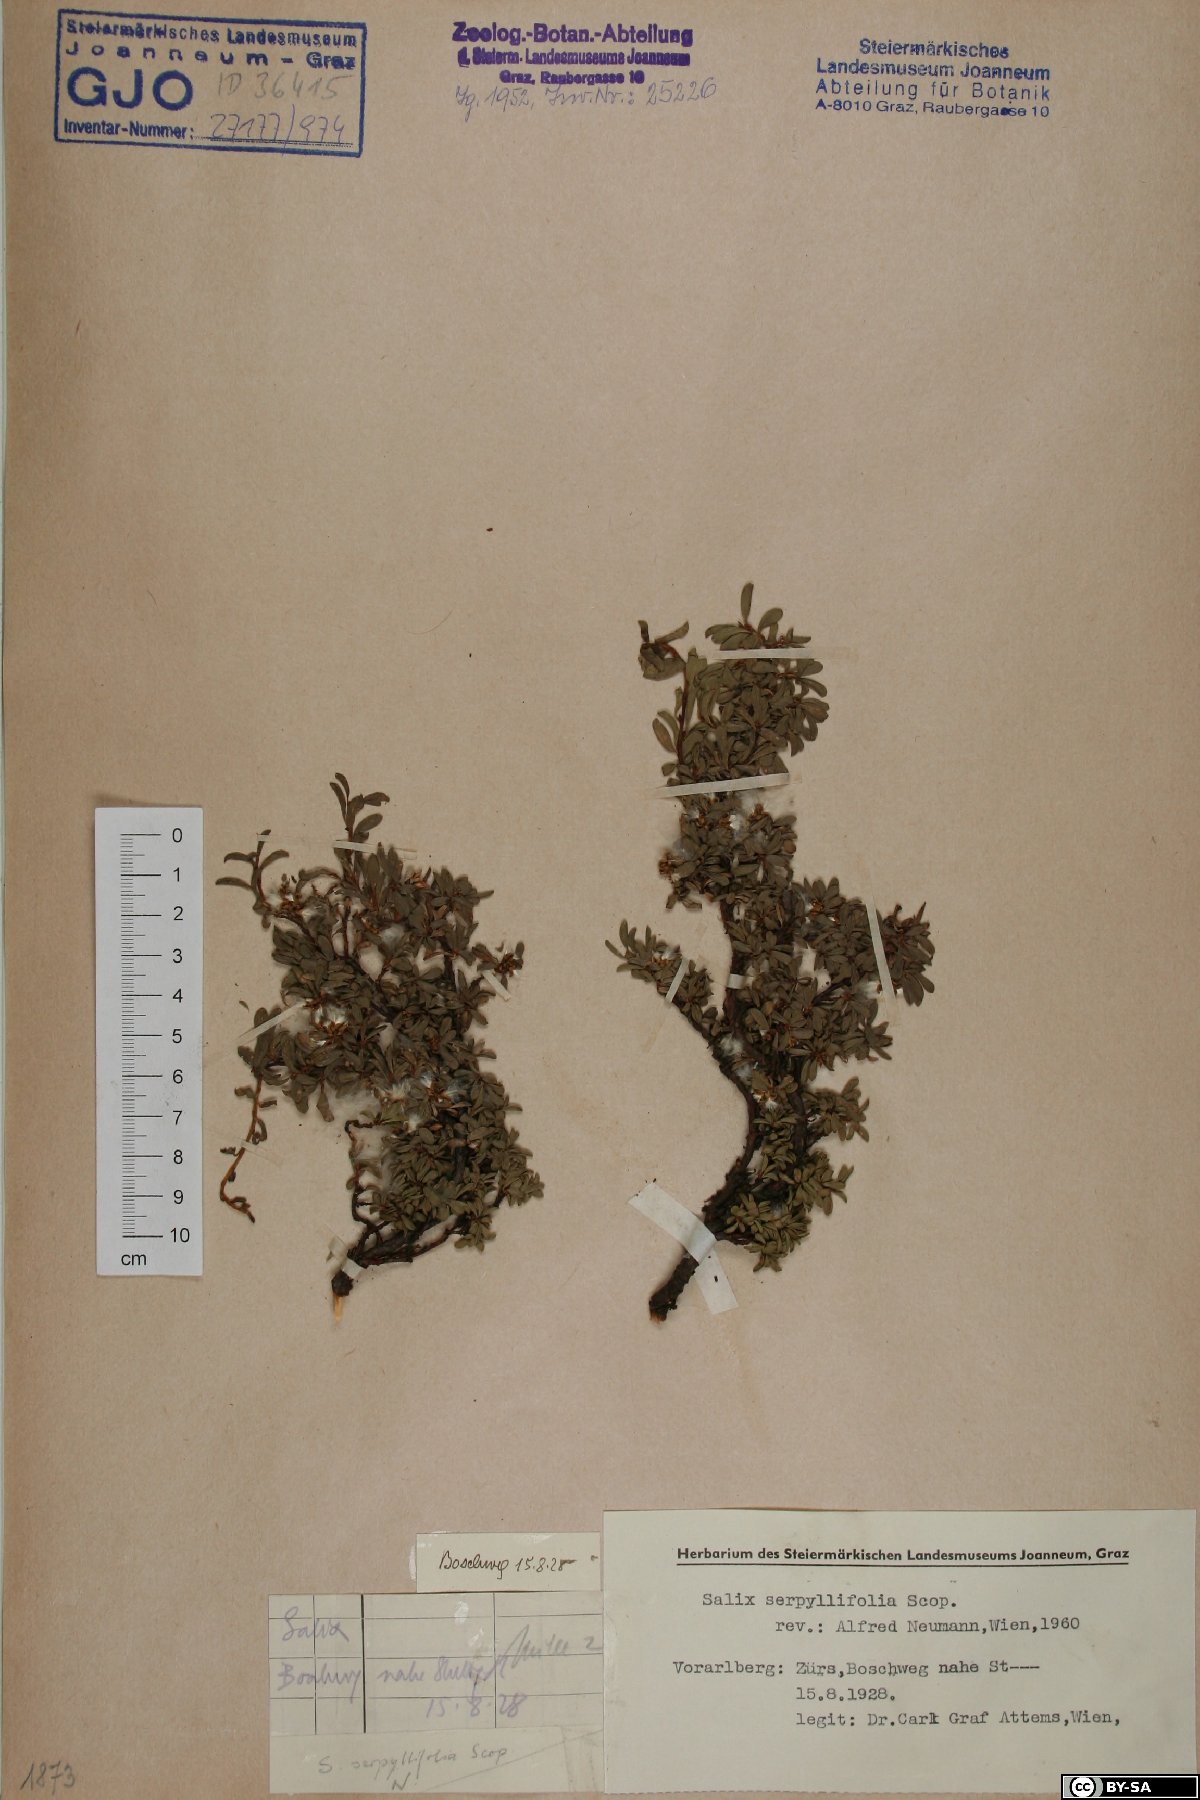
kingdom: Plantae
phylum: Tracheophyta
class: Magnoliopsida
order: Malpighiales
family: Salicaceae
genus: Salix
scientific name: Salix serpillifolia
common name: Thyme-leaf willow
